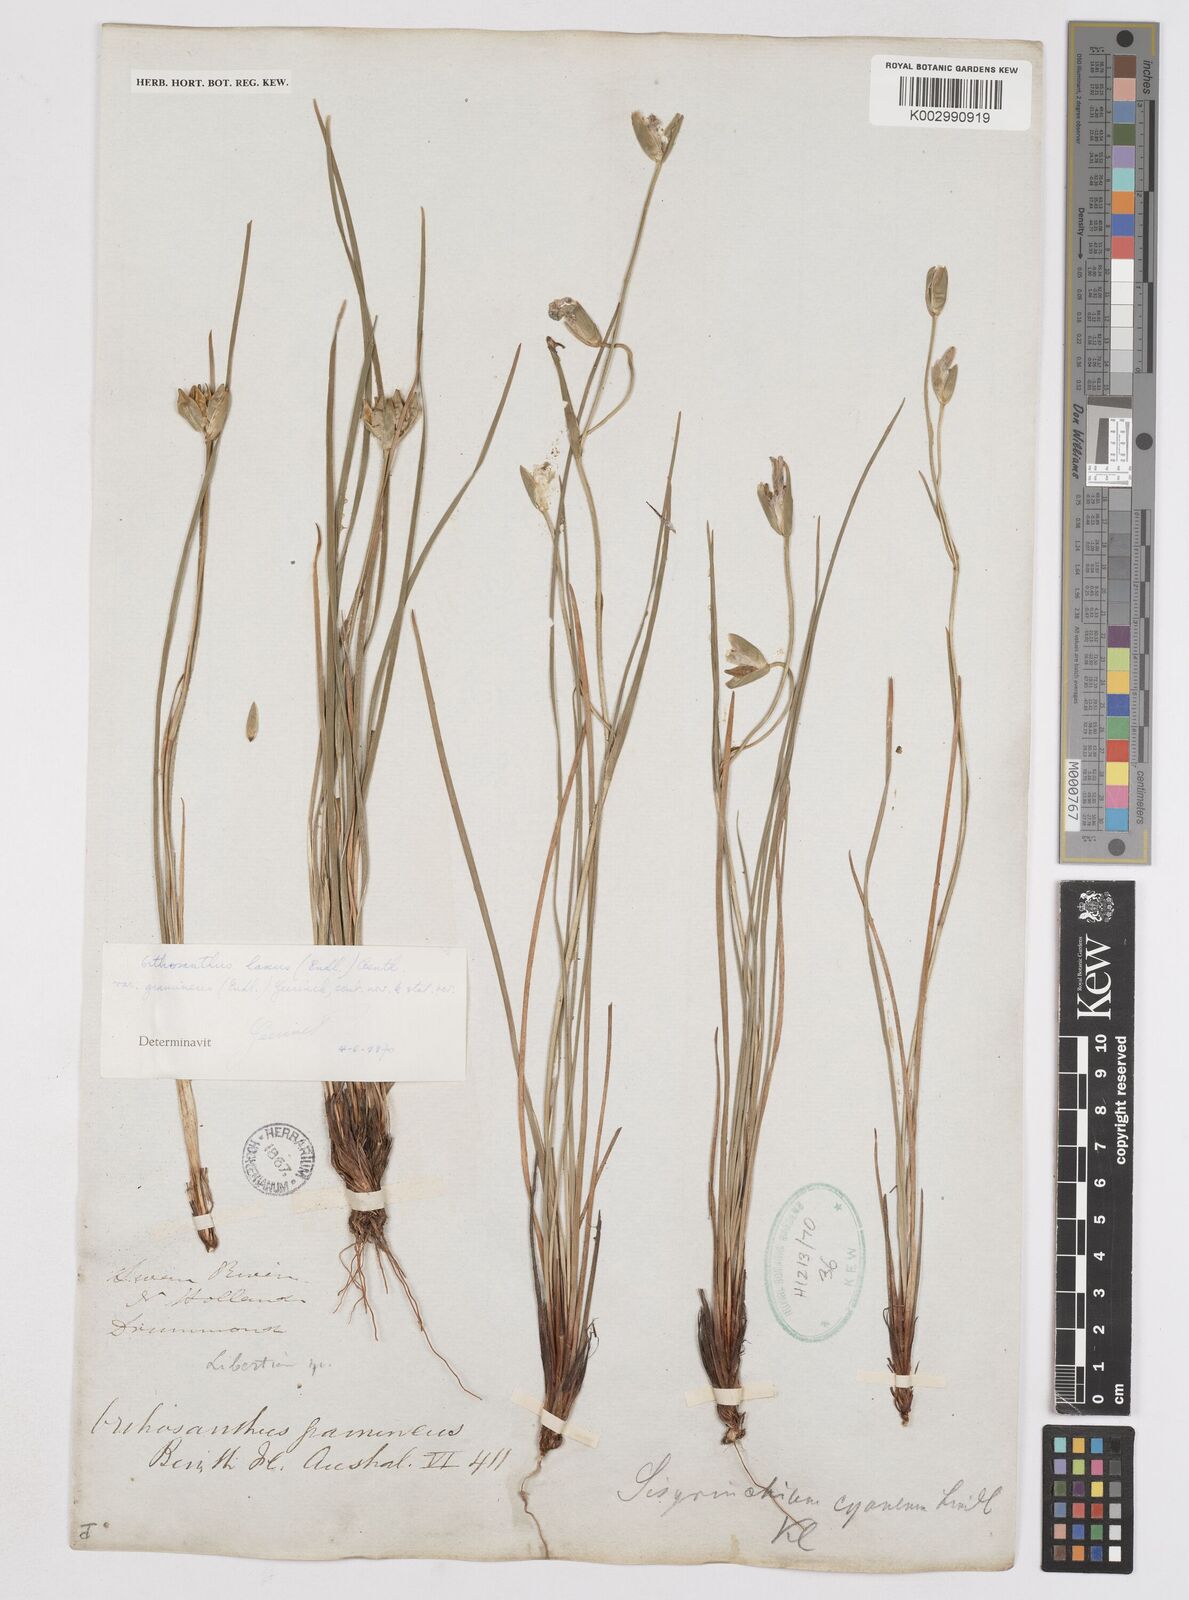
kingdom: Plantae
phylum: Tracheophyta
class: Liliopsida
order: Asparagales
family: Iridaceae
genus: Orthrosanthus
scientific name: Orthrosanthus laxus
